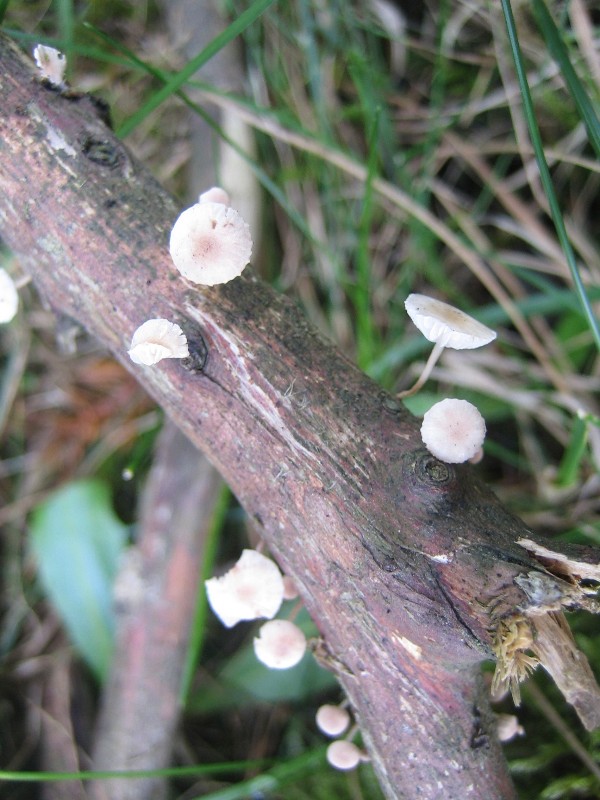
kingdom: Fungi
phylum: Basidiomycota
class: Agaricomycetes
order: Agaricales
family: Omphalotaceae
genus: Collybiopsis
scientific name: Collybiopsis ramealis
